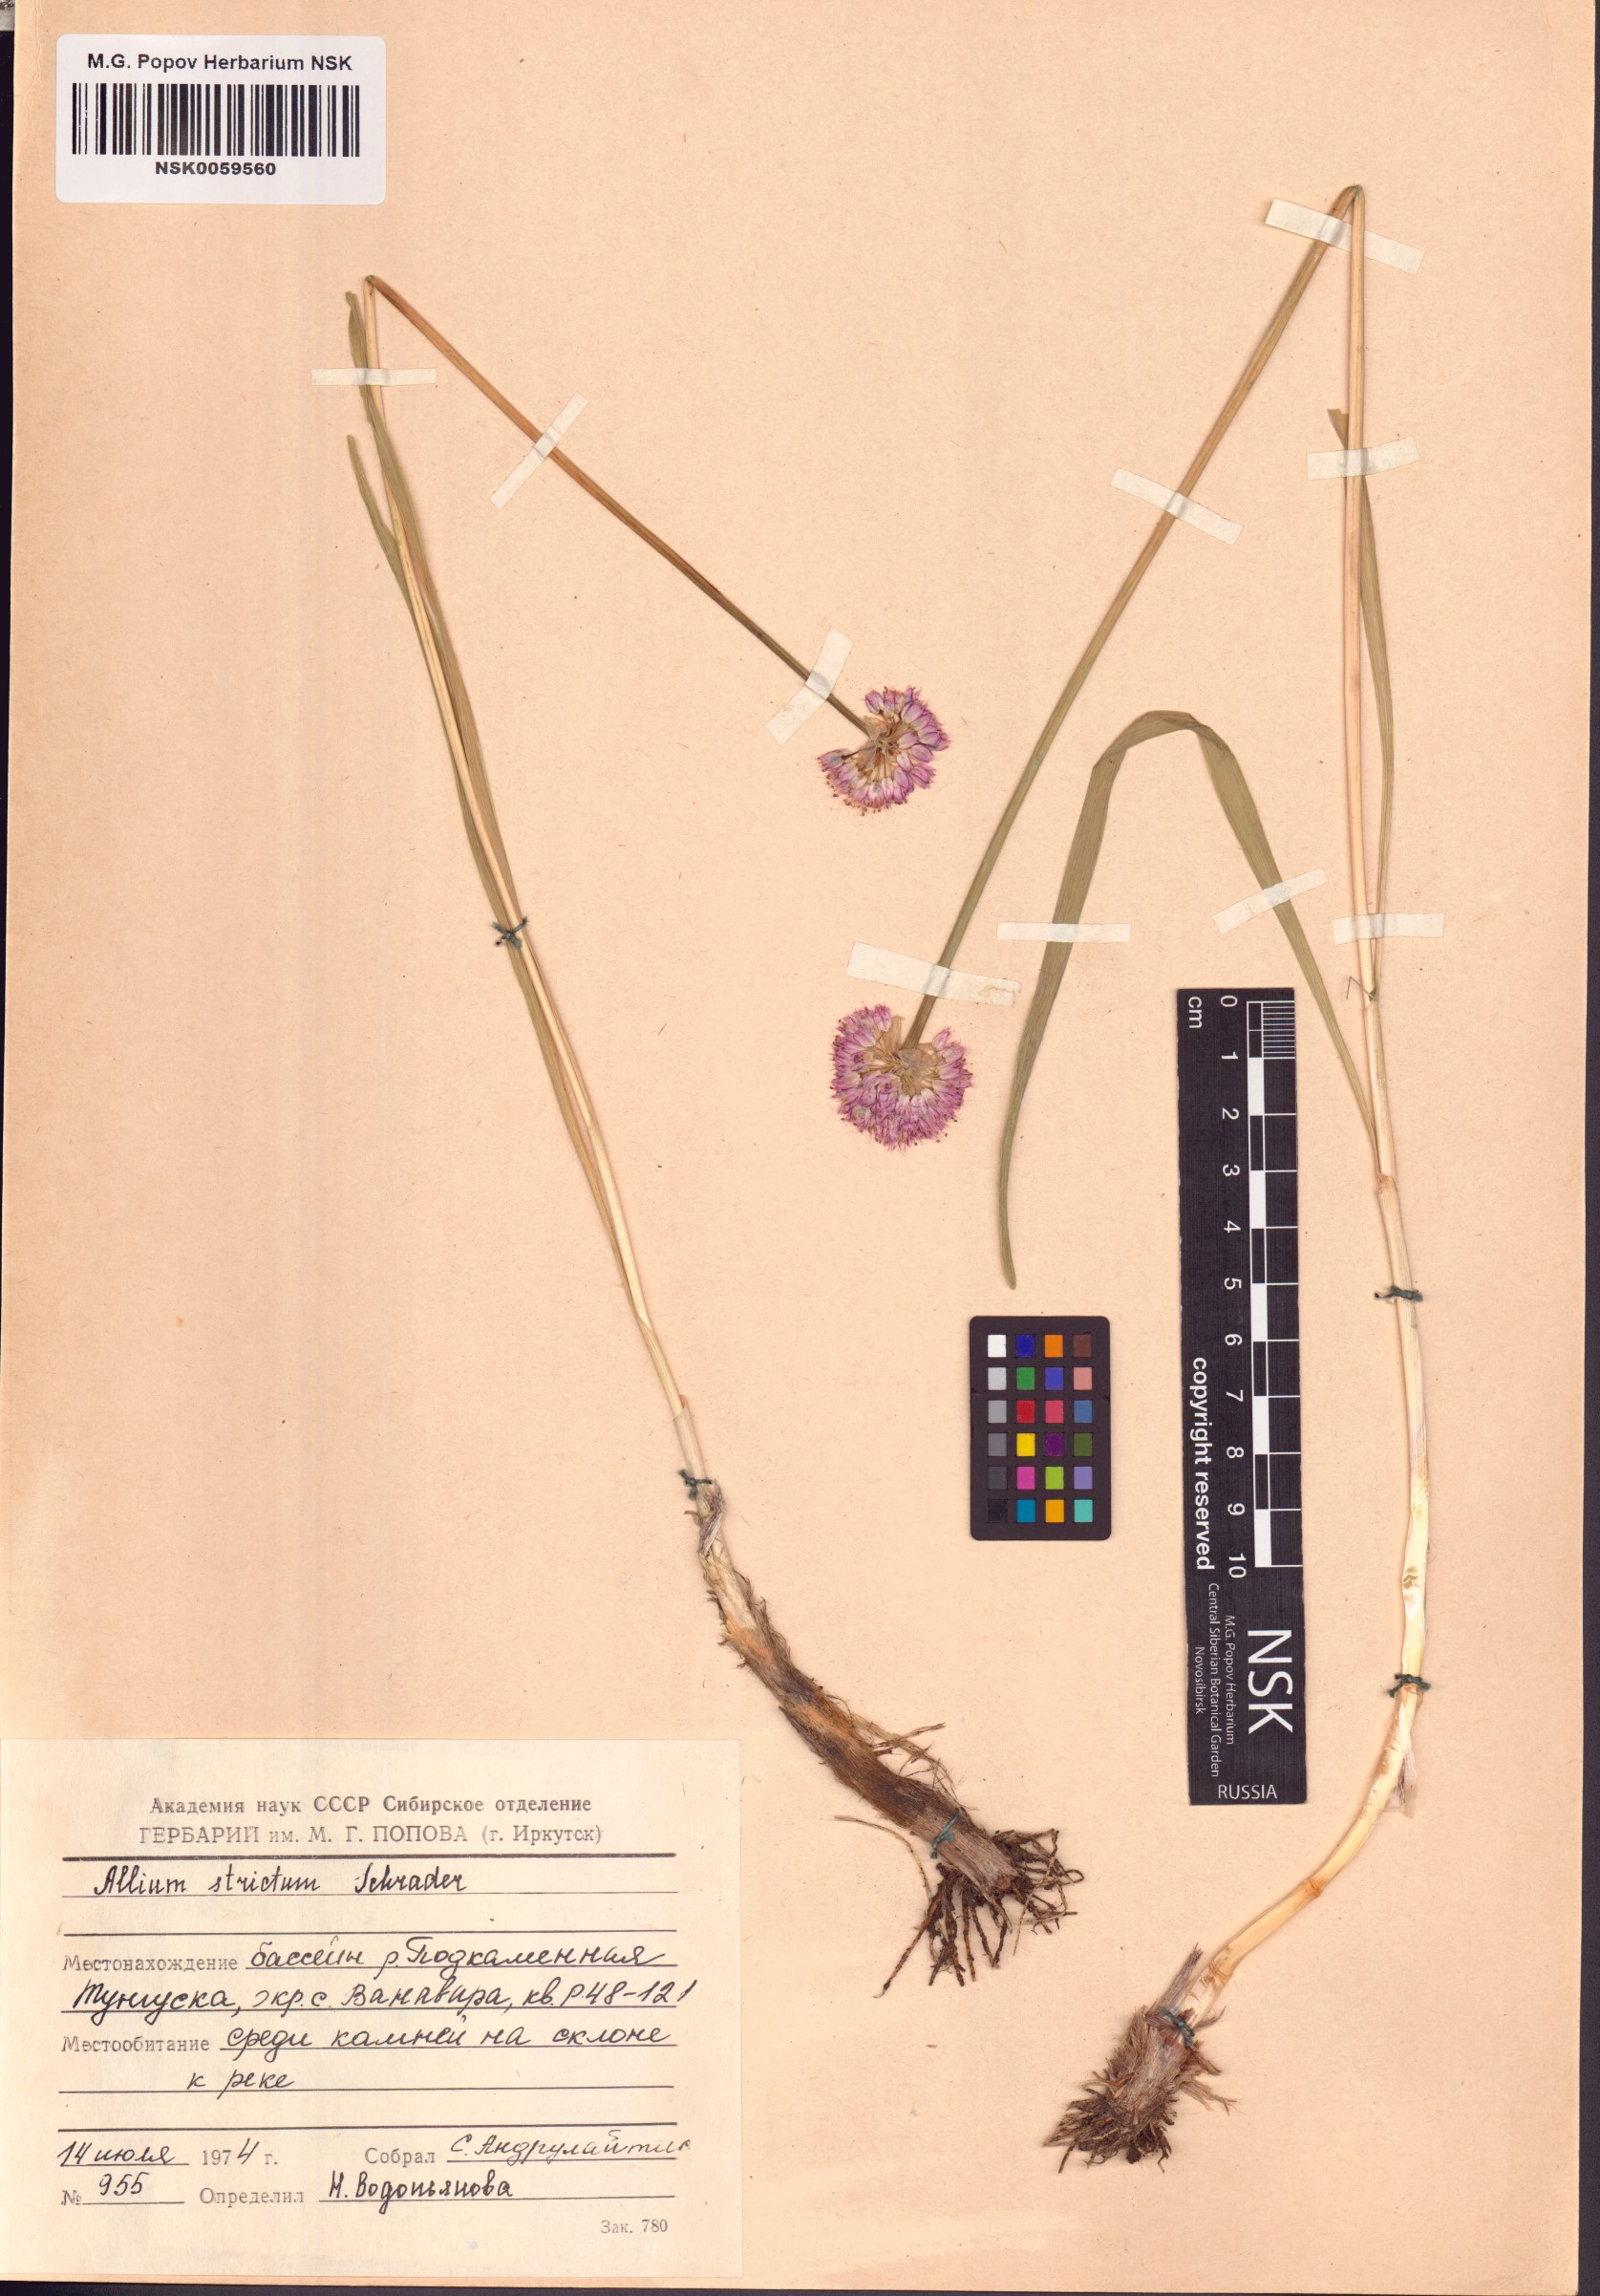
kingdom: Plantae
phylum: Tracheophyta
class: Liliopsida
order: Asparagales
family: Amaryllidaceae
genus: Allium
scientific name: Allium strictum
